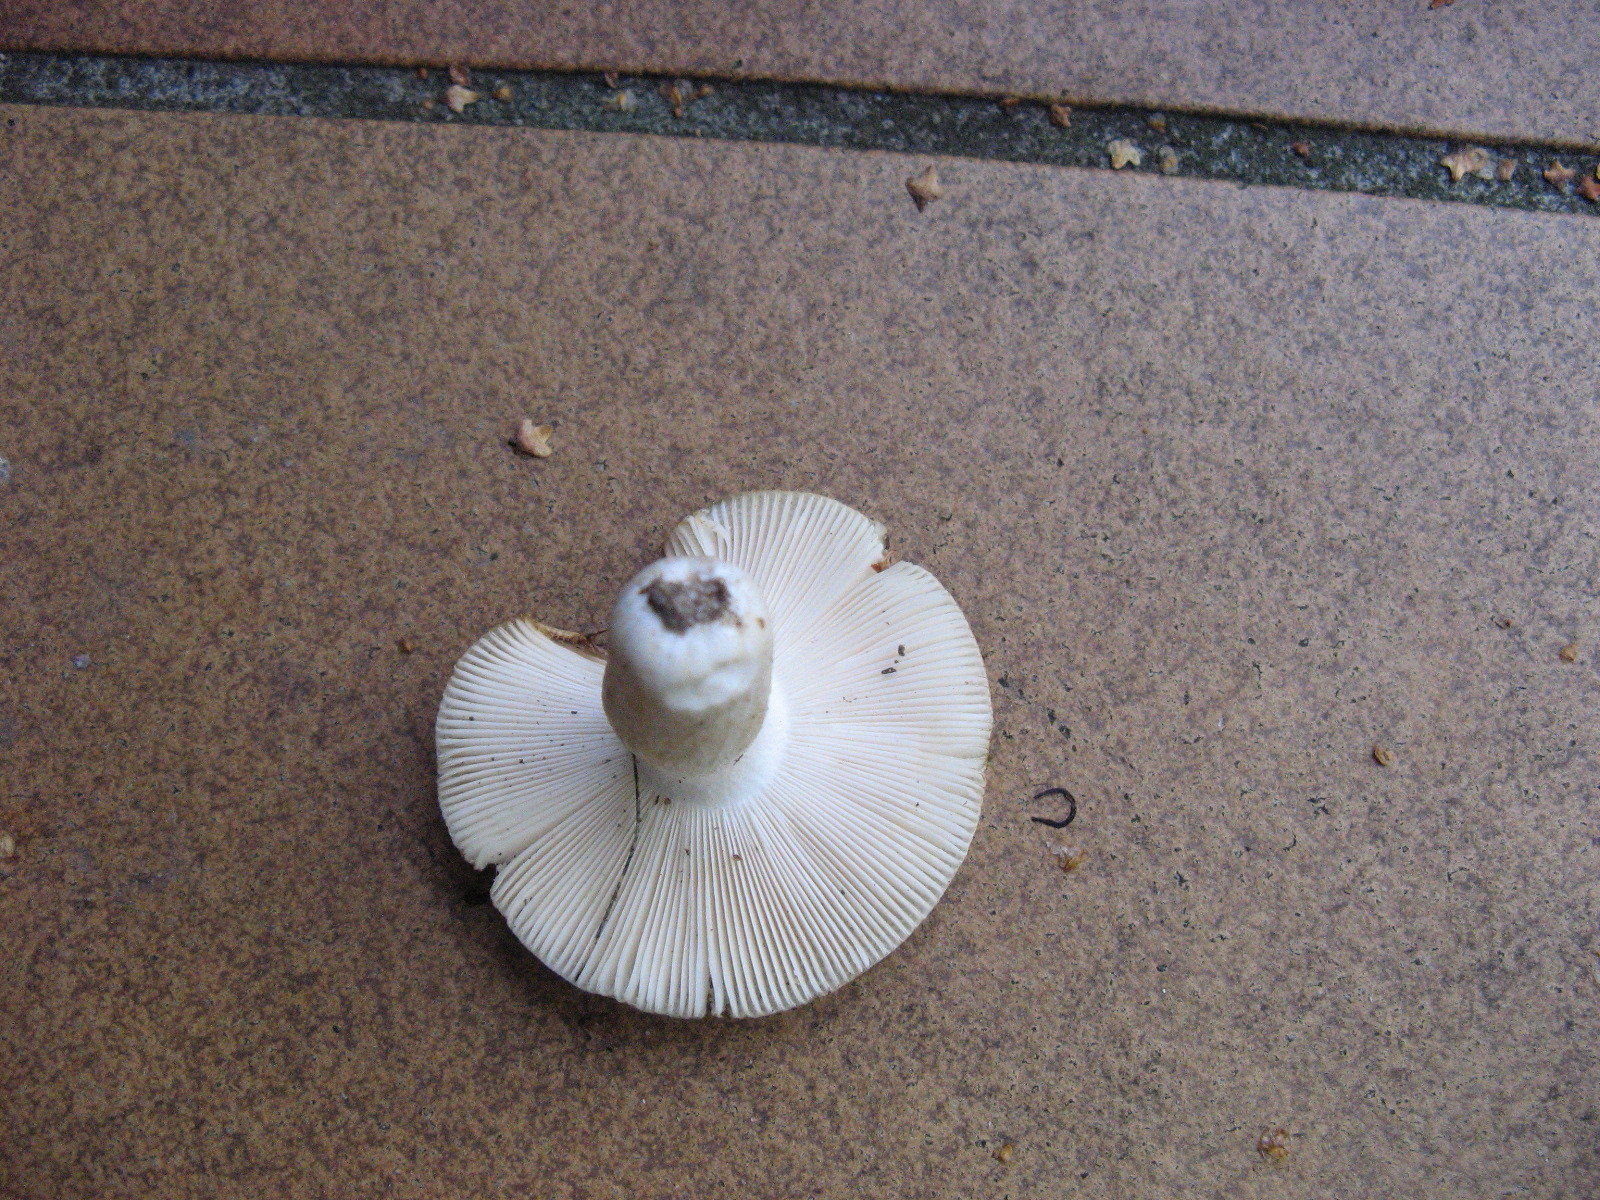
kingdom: Fungi
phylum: Basidiomycota
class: Agaricomycetes
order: Russulales
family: Russulaceae
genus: Russula
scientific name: Russula aeruginea
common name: græsgrøn skørhat
